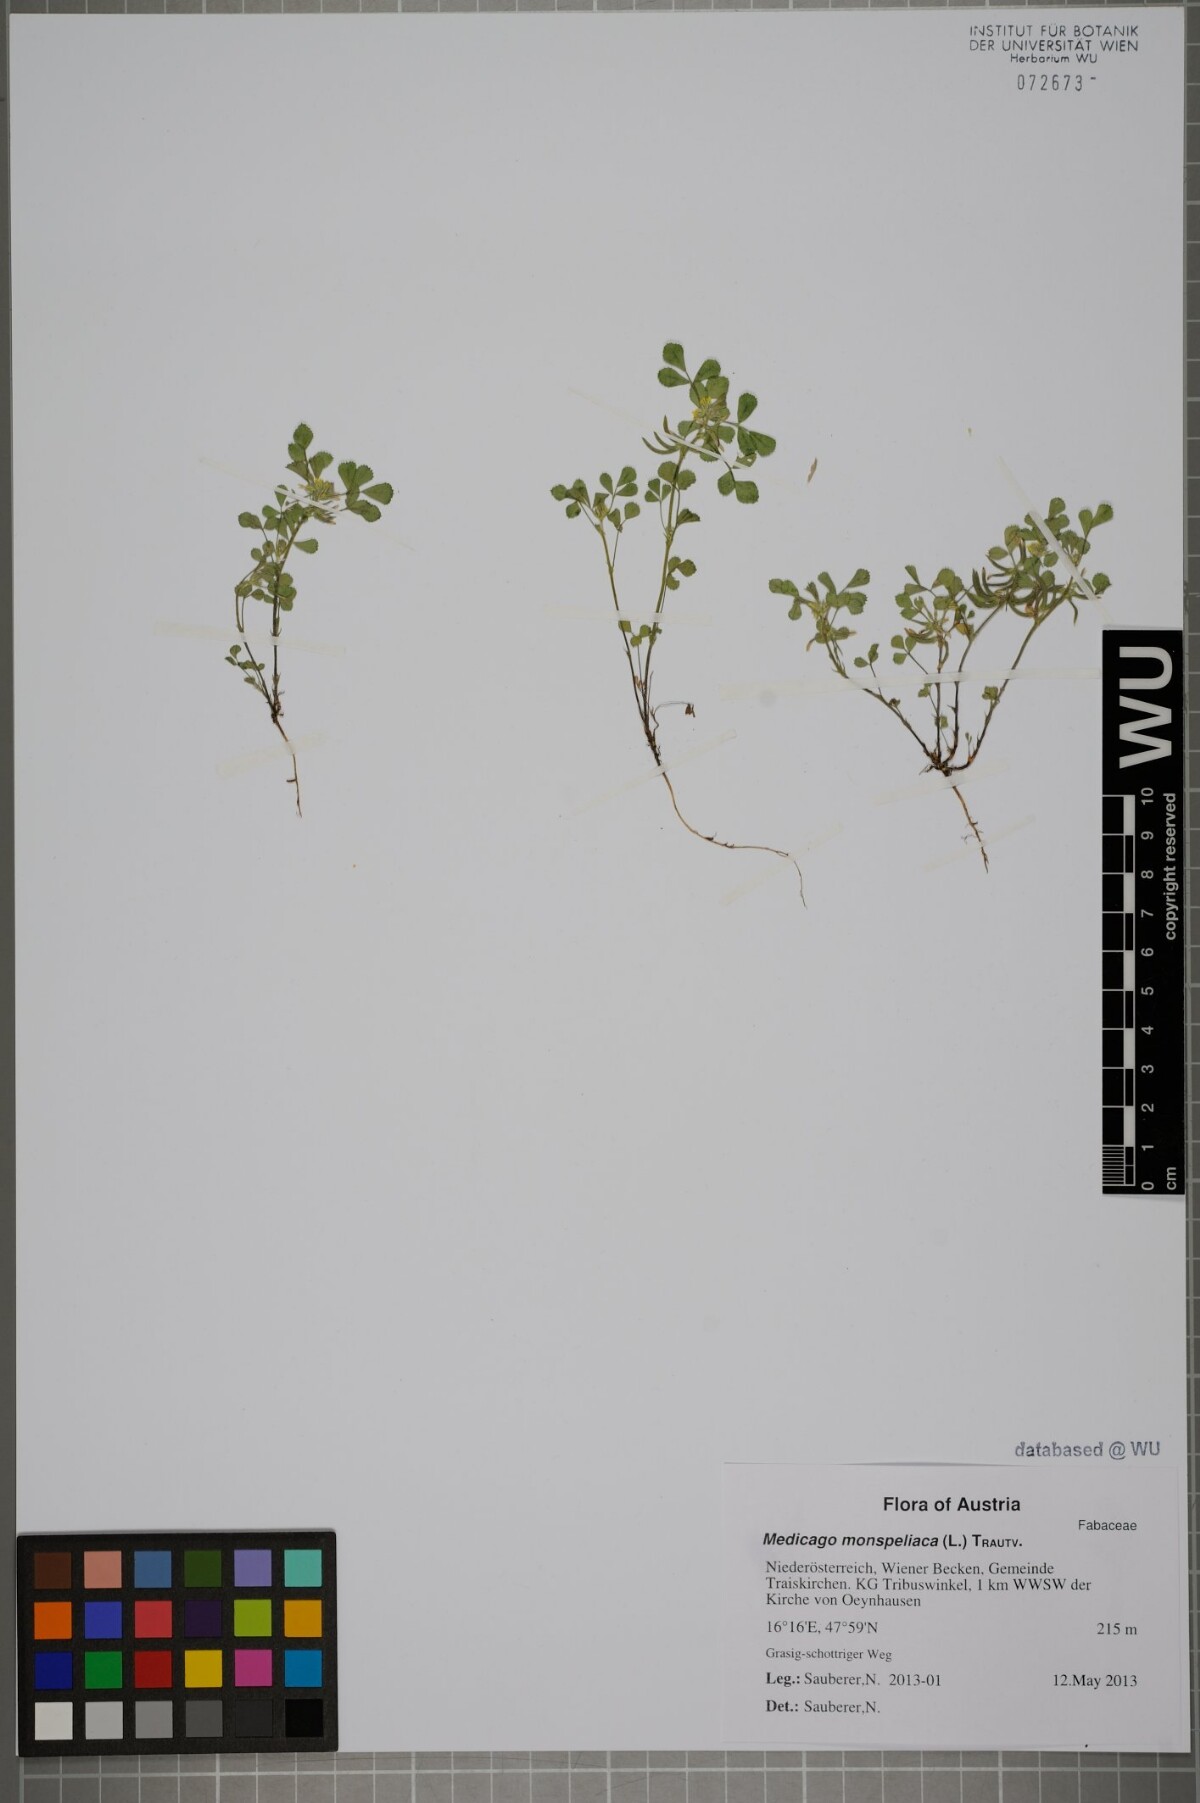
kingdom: Plantae
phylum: Tracheophyta
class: Magnoliopsida
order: Fabales
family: Fabaceae
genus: Medicago
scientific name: Medicago monspeliaca
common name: Hairy medick
